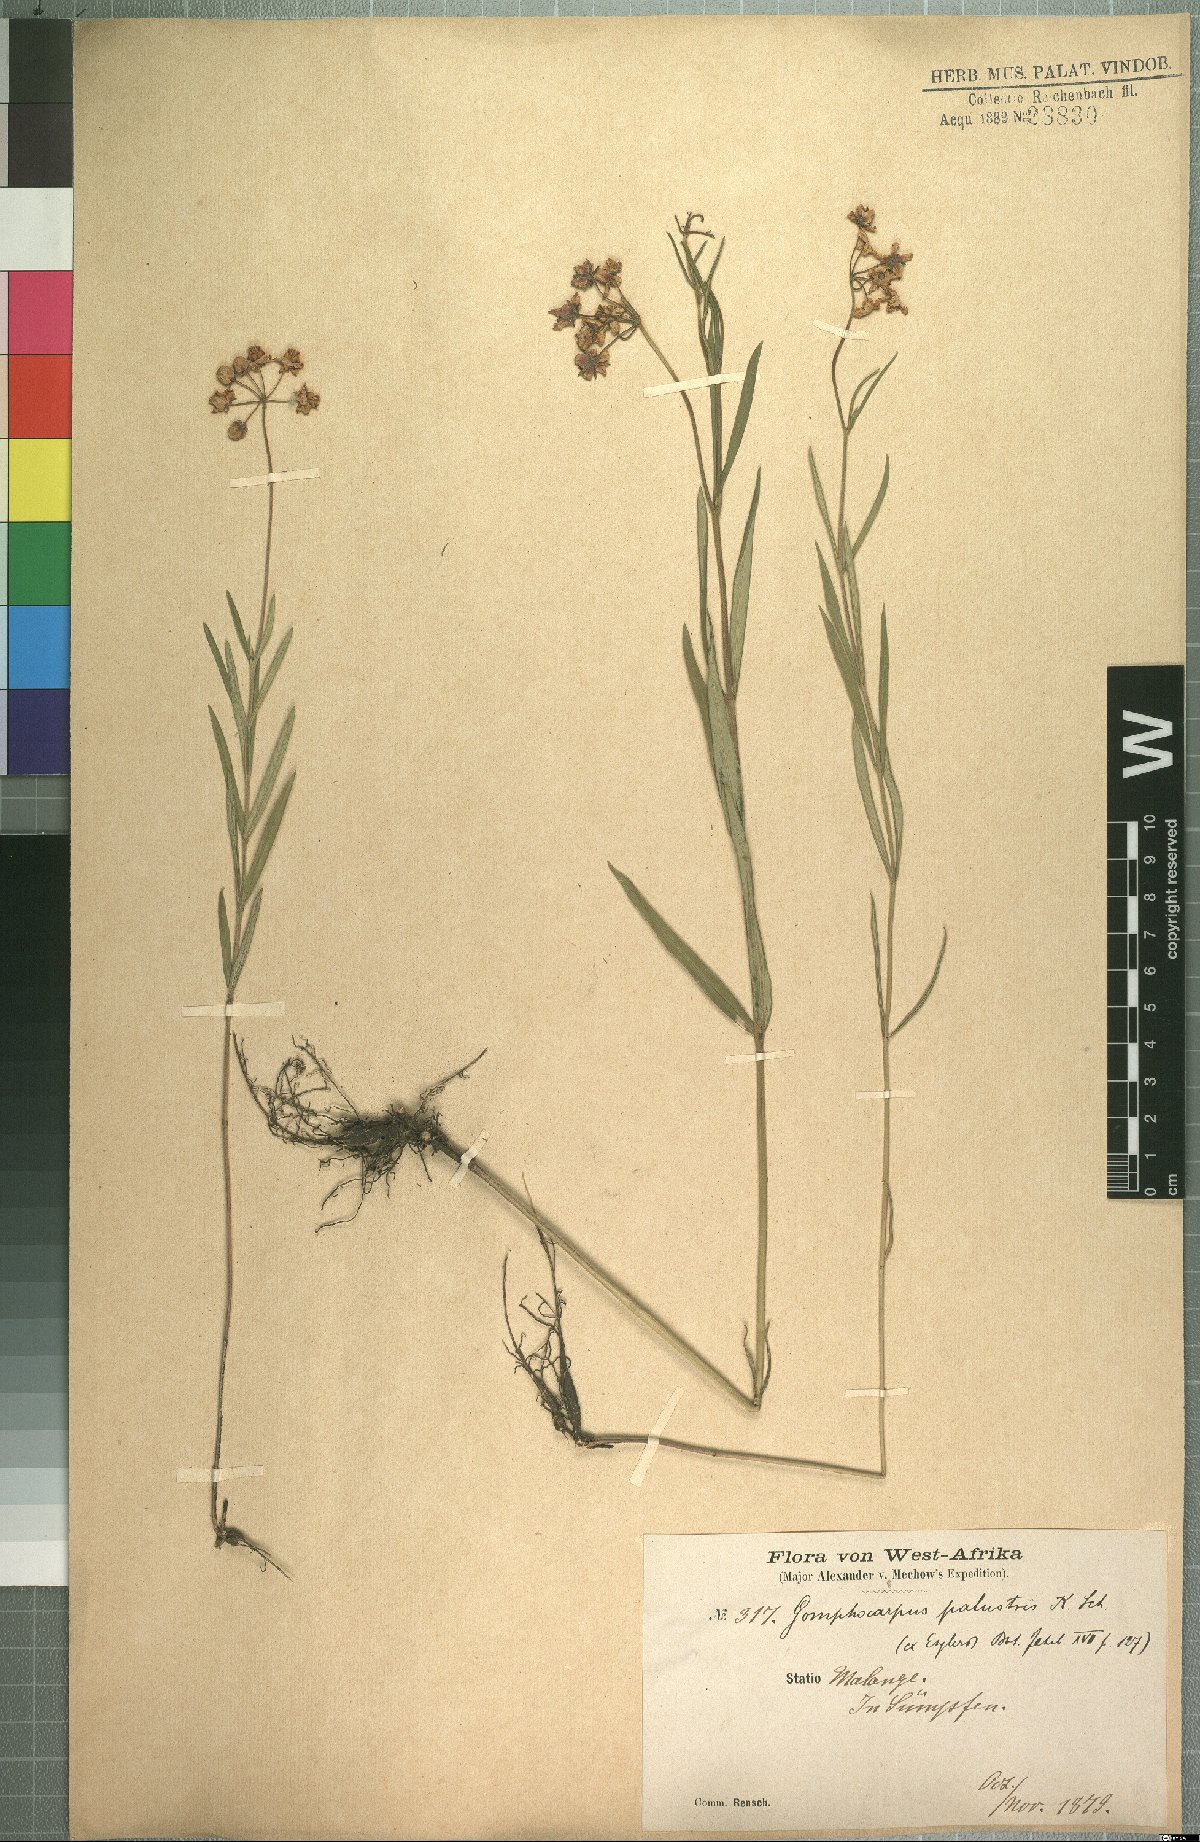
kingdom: Plantae
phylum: Tracheophyta
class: Magnoliopsida
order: Gentianales
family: Apocynaceae
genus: Asclepias
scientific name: Asclepias palustris
